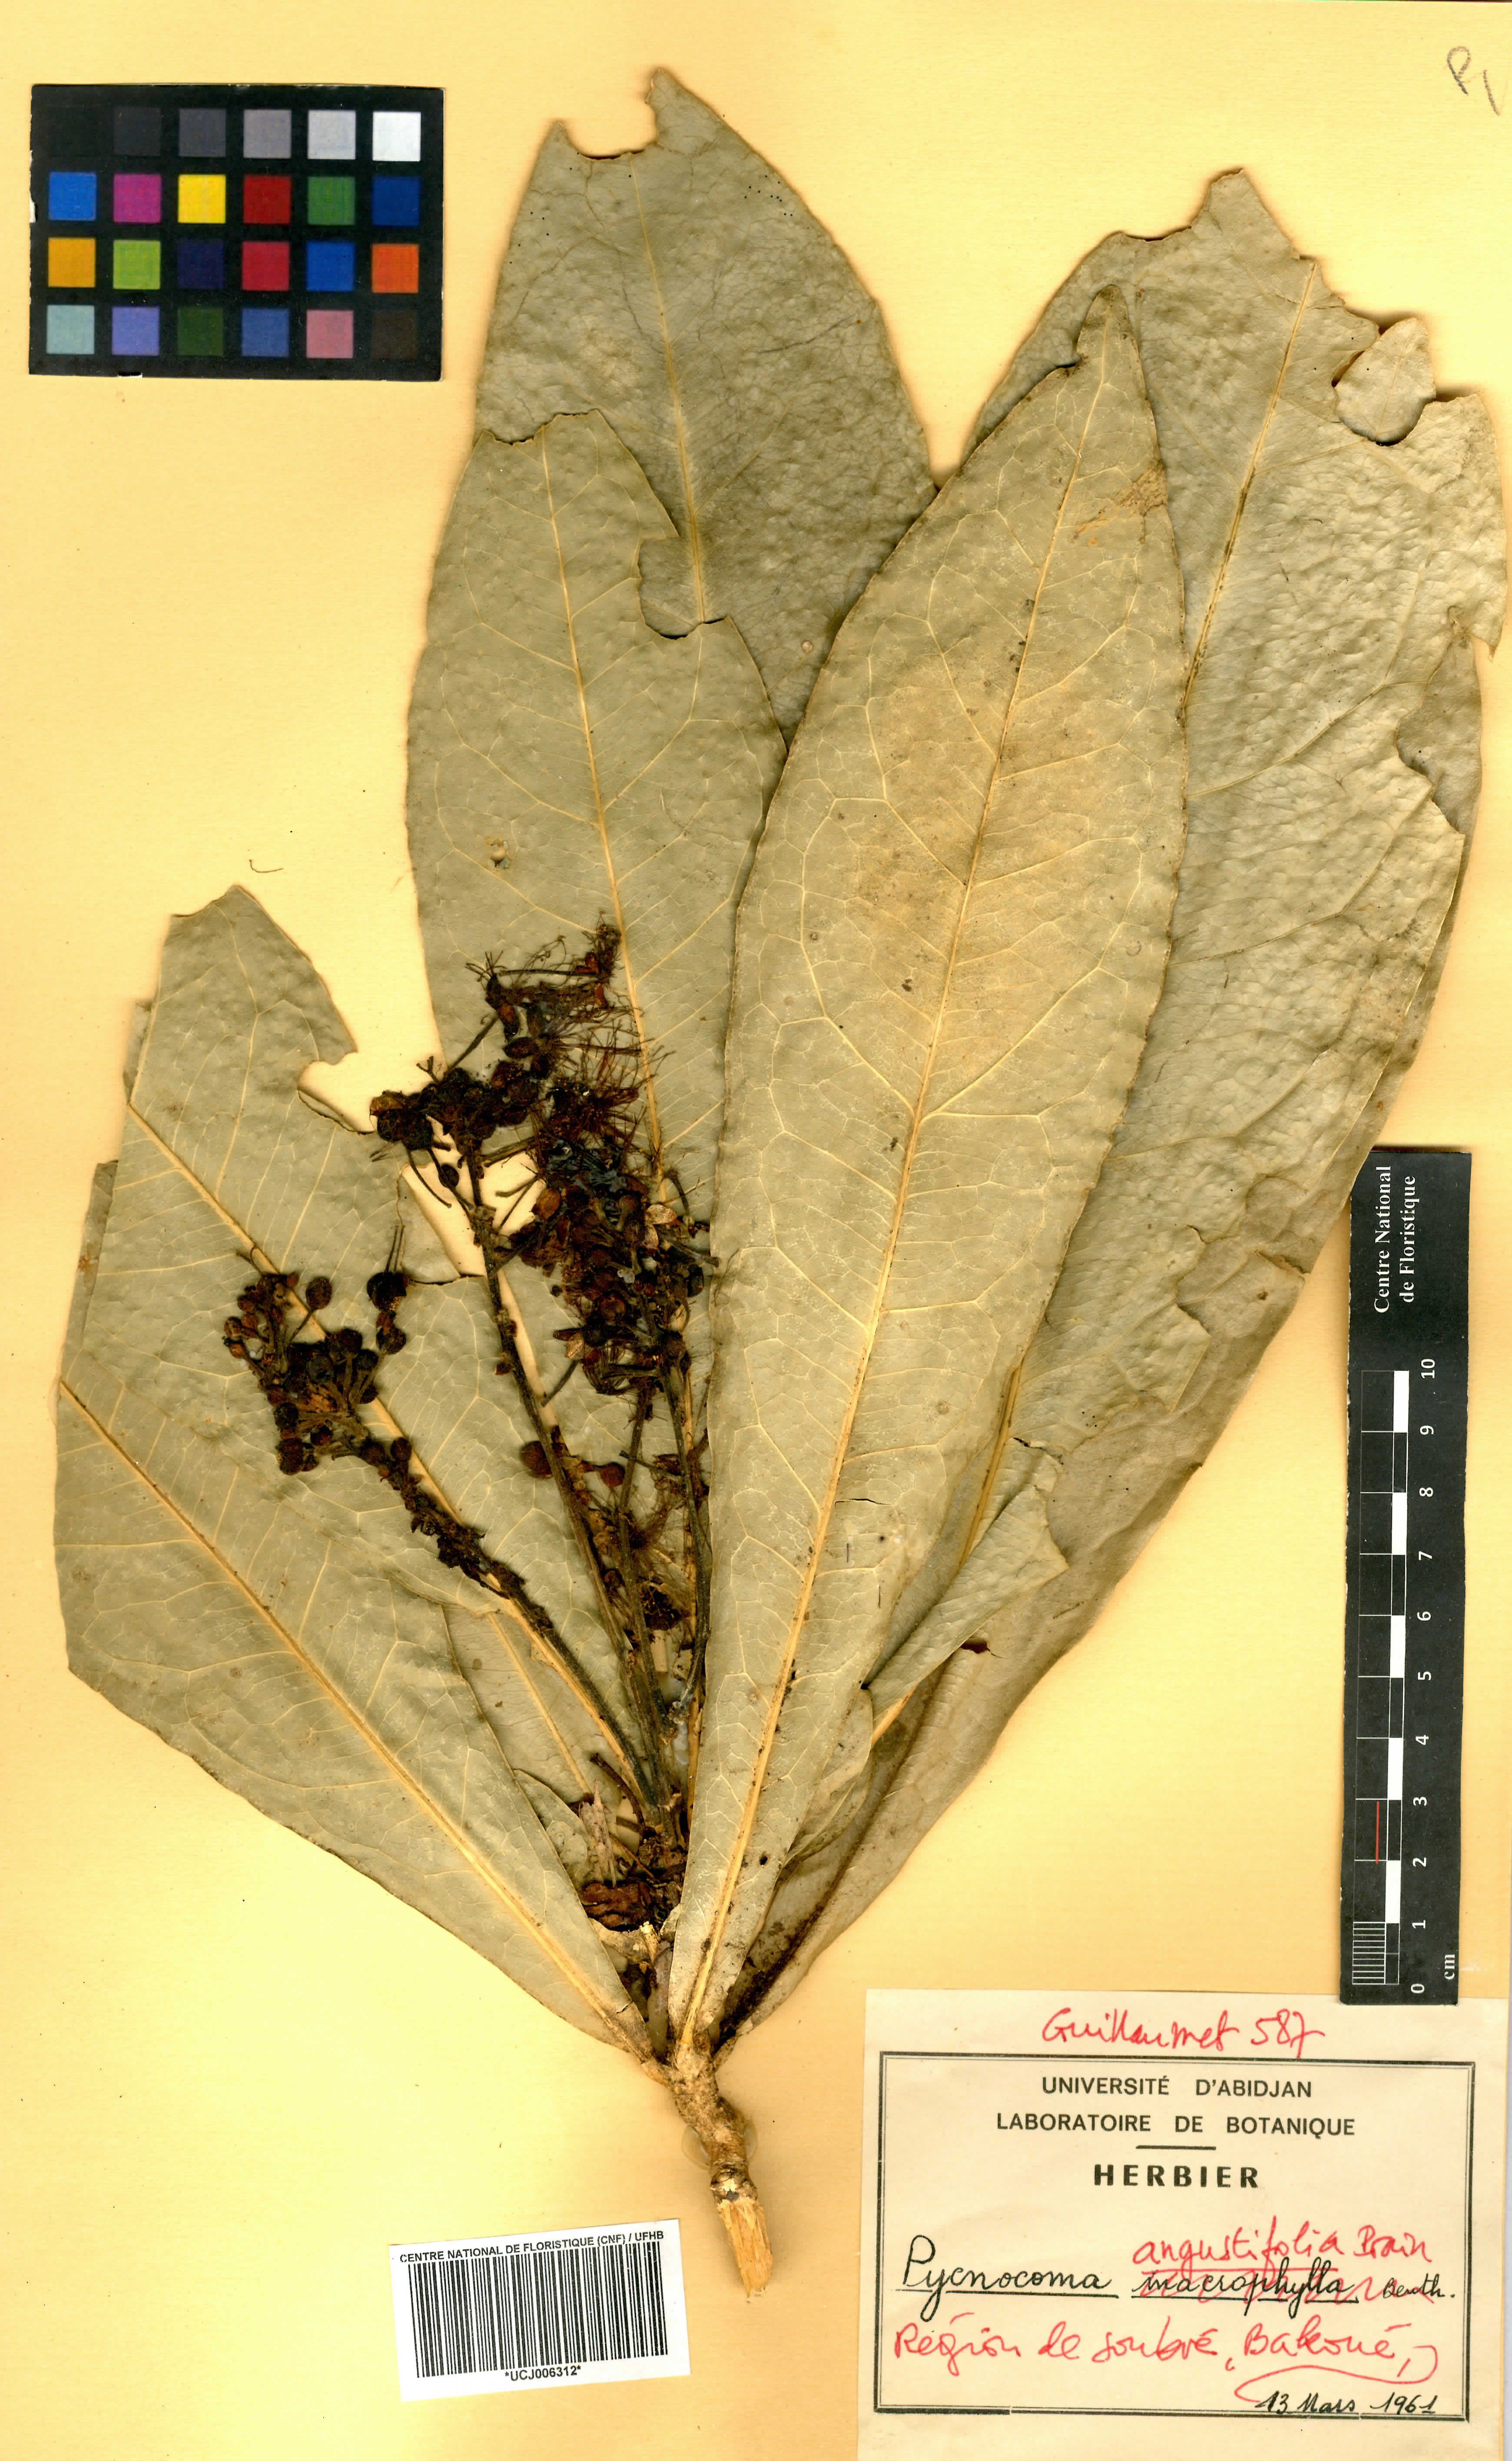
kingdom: Plantae
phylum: Tracheophyta
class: Magnoliopsida
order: Malpighiales
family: Euphorbiaceae
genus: Pycnocoma
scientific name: Pycnocoma angustifolia
